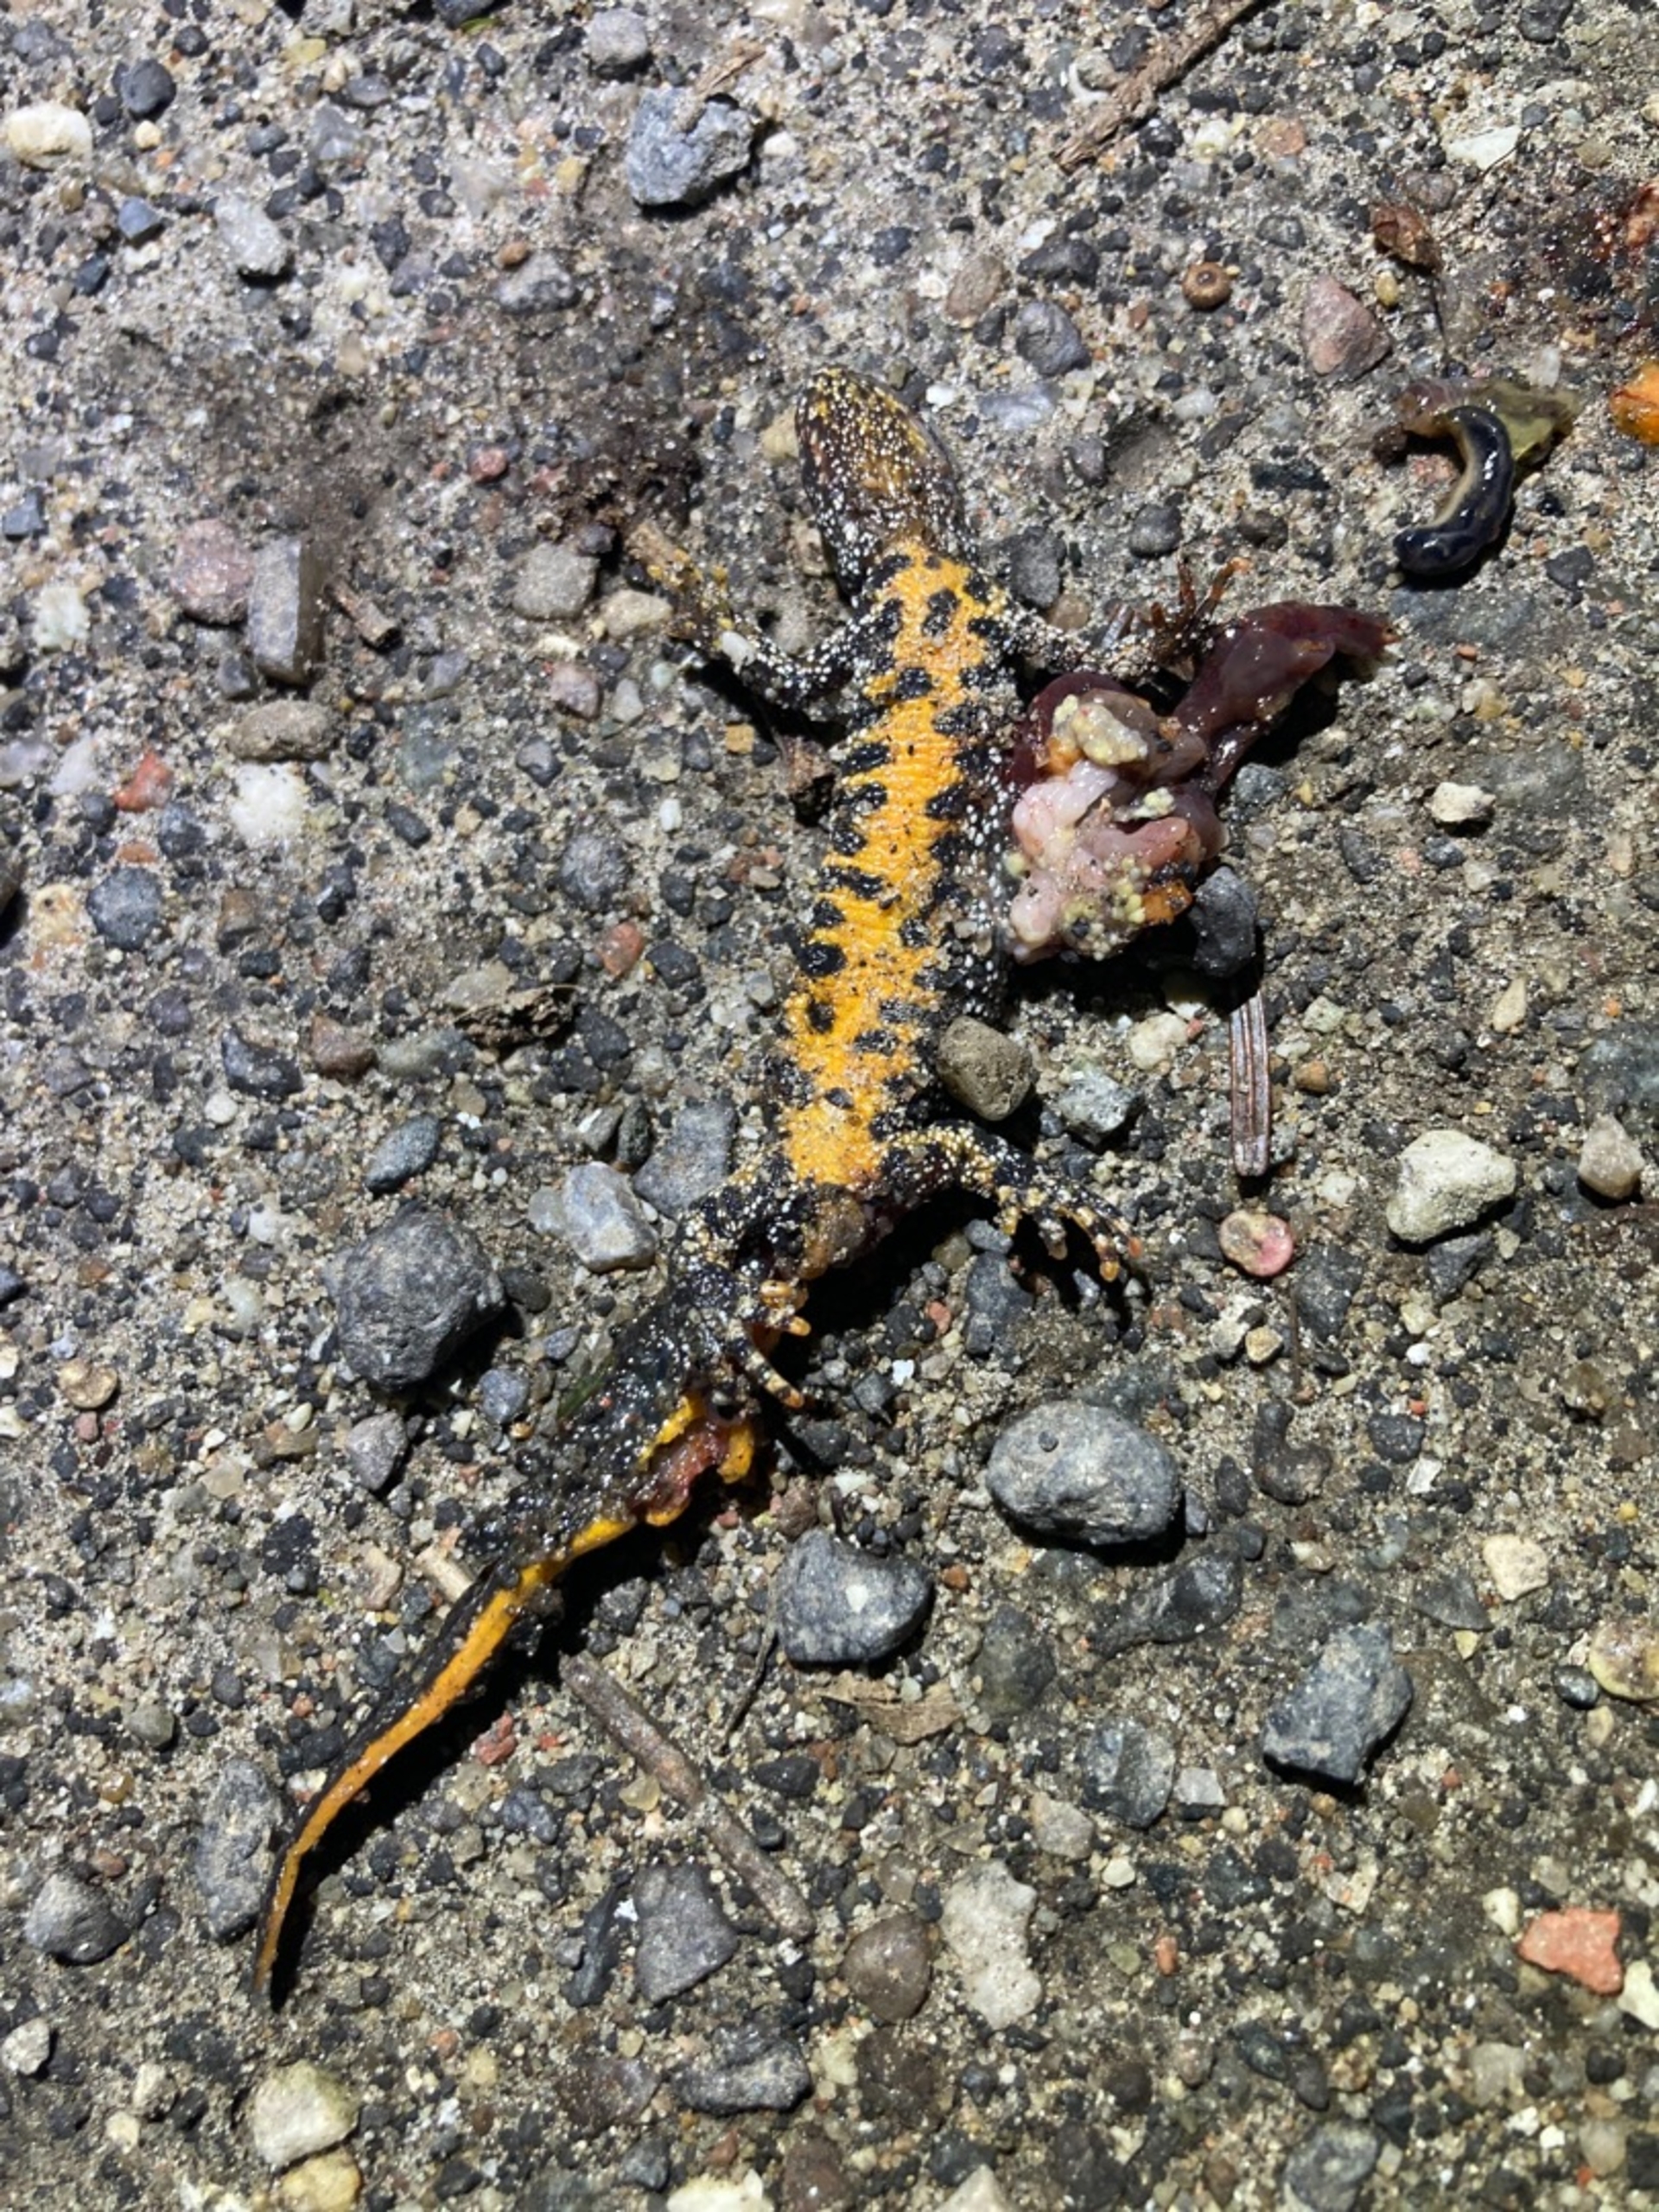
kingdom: Animalia
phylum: Chordata
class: Amphibia
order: Caudata
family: Salamandridae
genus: Triturus
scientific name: Triturus cristatus
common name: Stor vandsalamander
